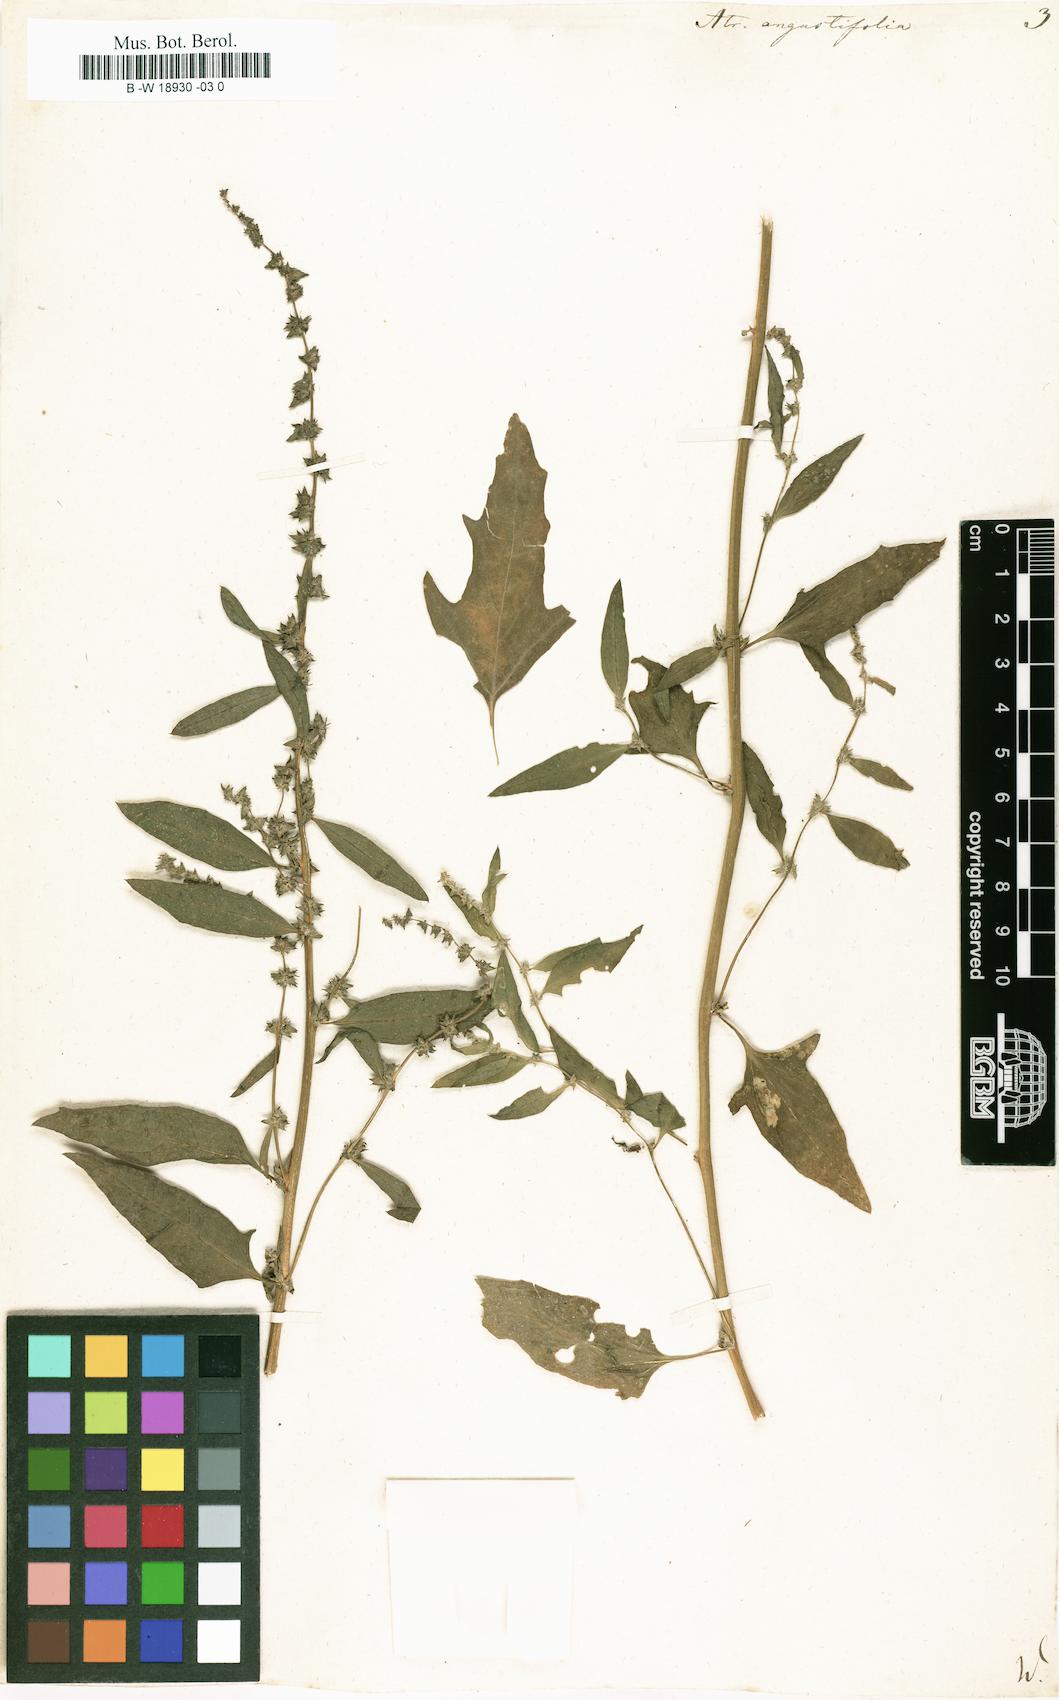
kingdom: Plantae
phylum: Tracheophyta
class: Magnoliopsida
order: Caryophyllales
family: Amaranthaceae
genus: Atriplex
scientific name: Atriplex repanda
